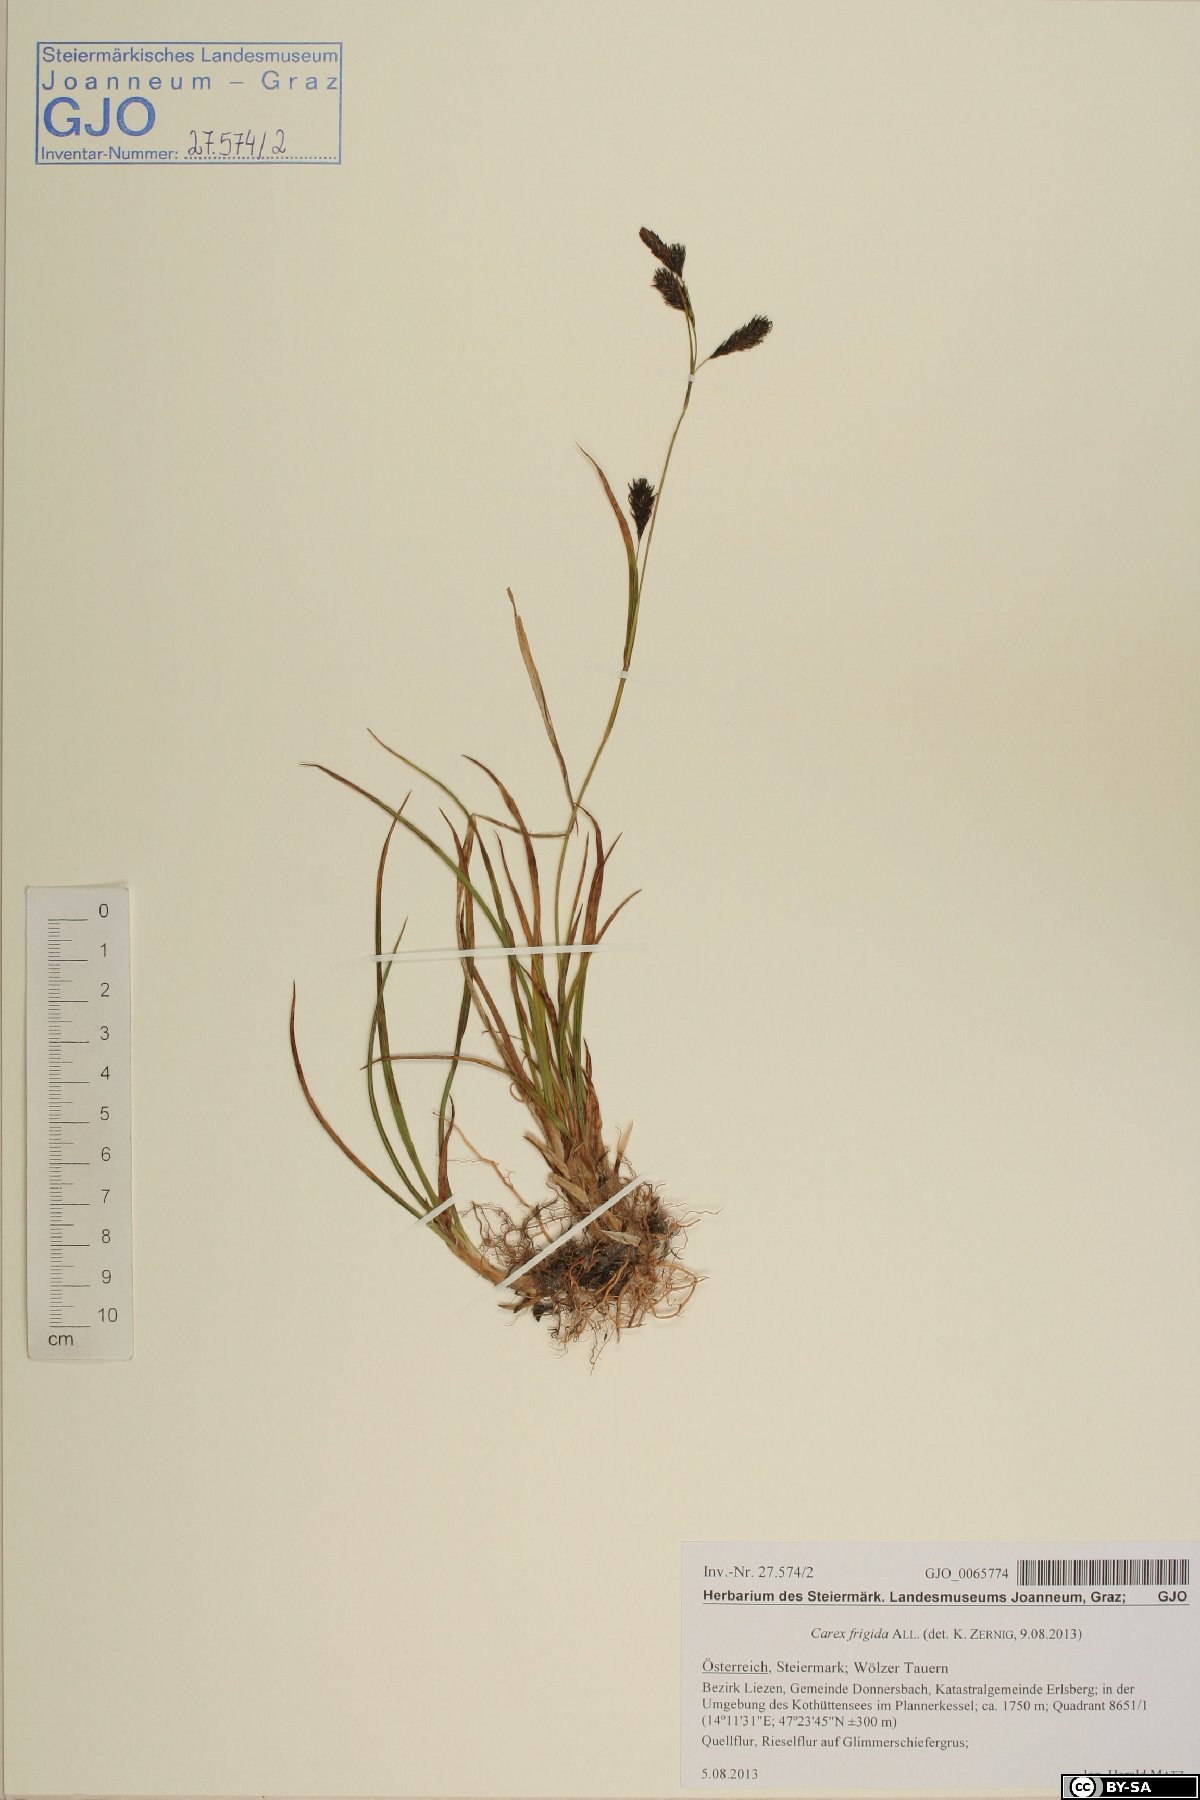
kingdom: Plantae
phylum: Tracheophyta
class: Liliopsida
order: Poales
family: Cyperaceae
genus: Carex
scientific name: Carex frigida
